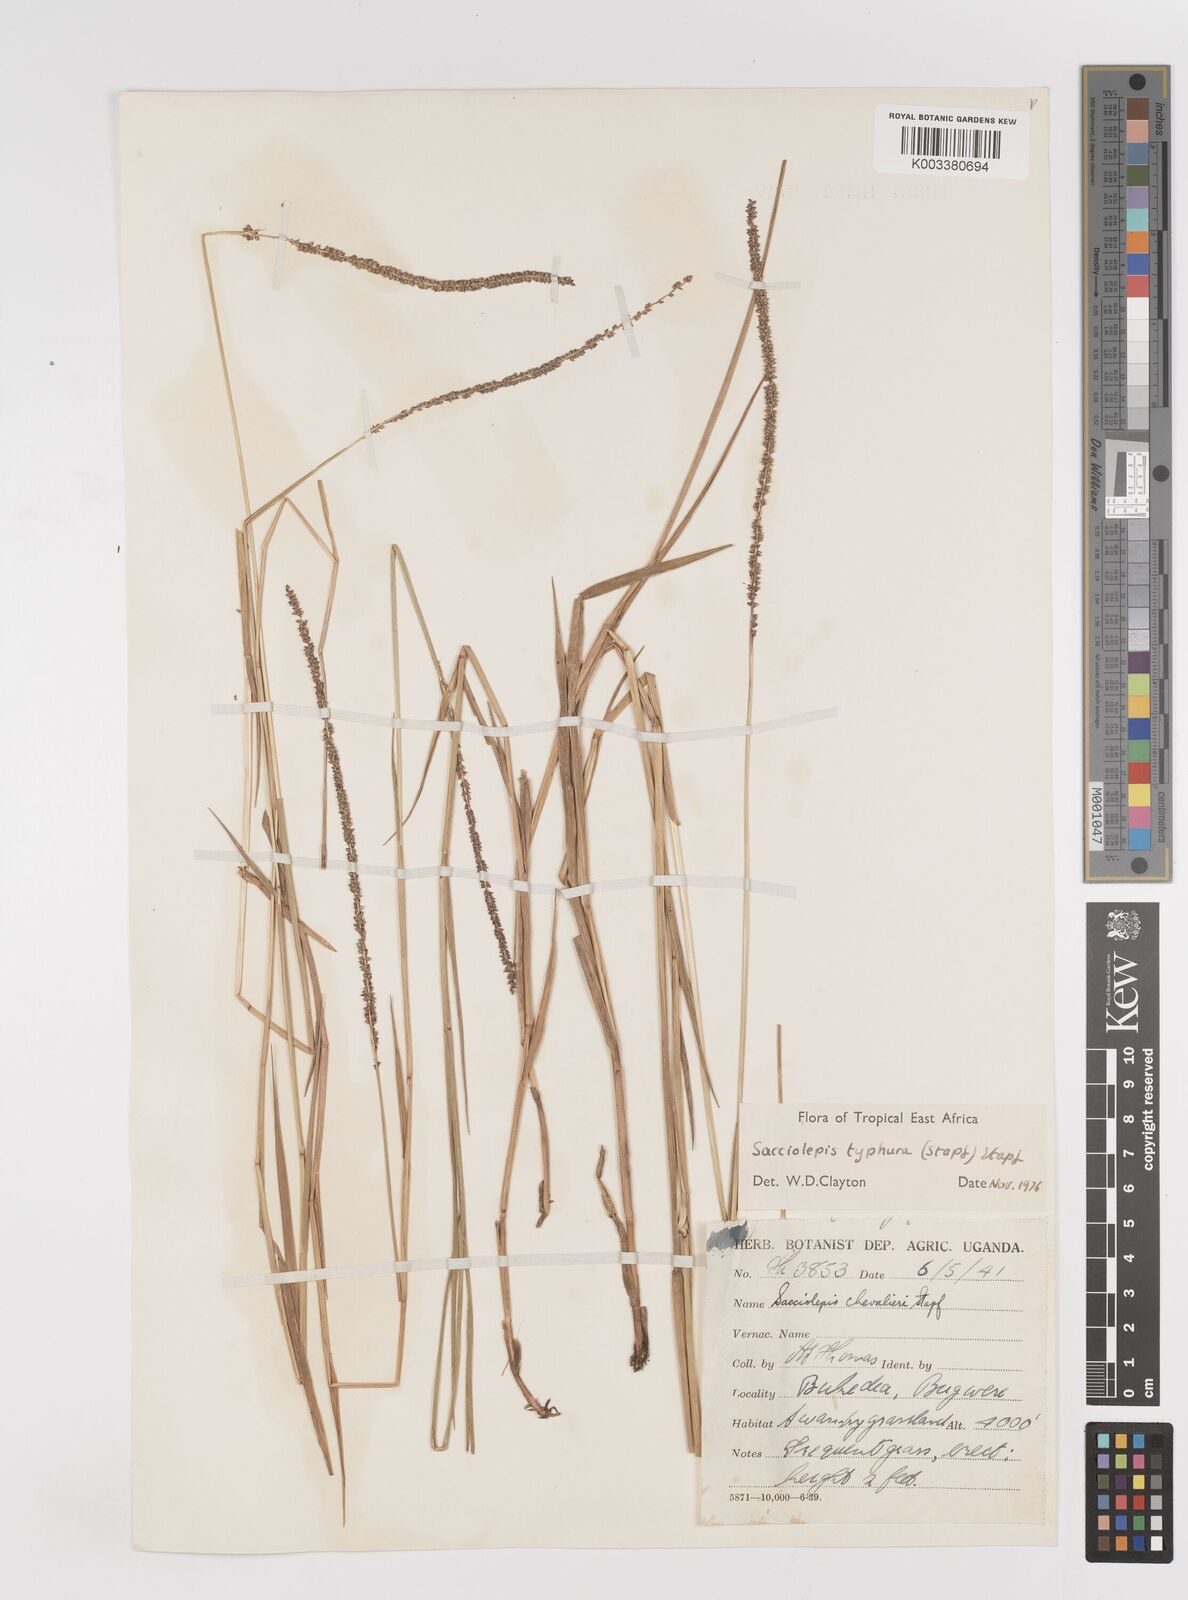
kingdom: Plantae
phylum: Tracheophyta
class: Liliopsida
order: Poales
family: Poaceae
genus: Sacciolepis
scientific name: Sacciolepis typhura
